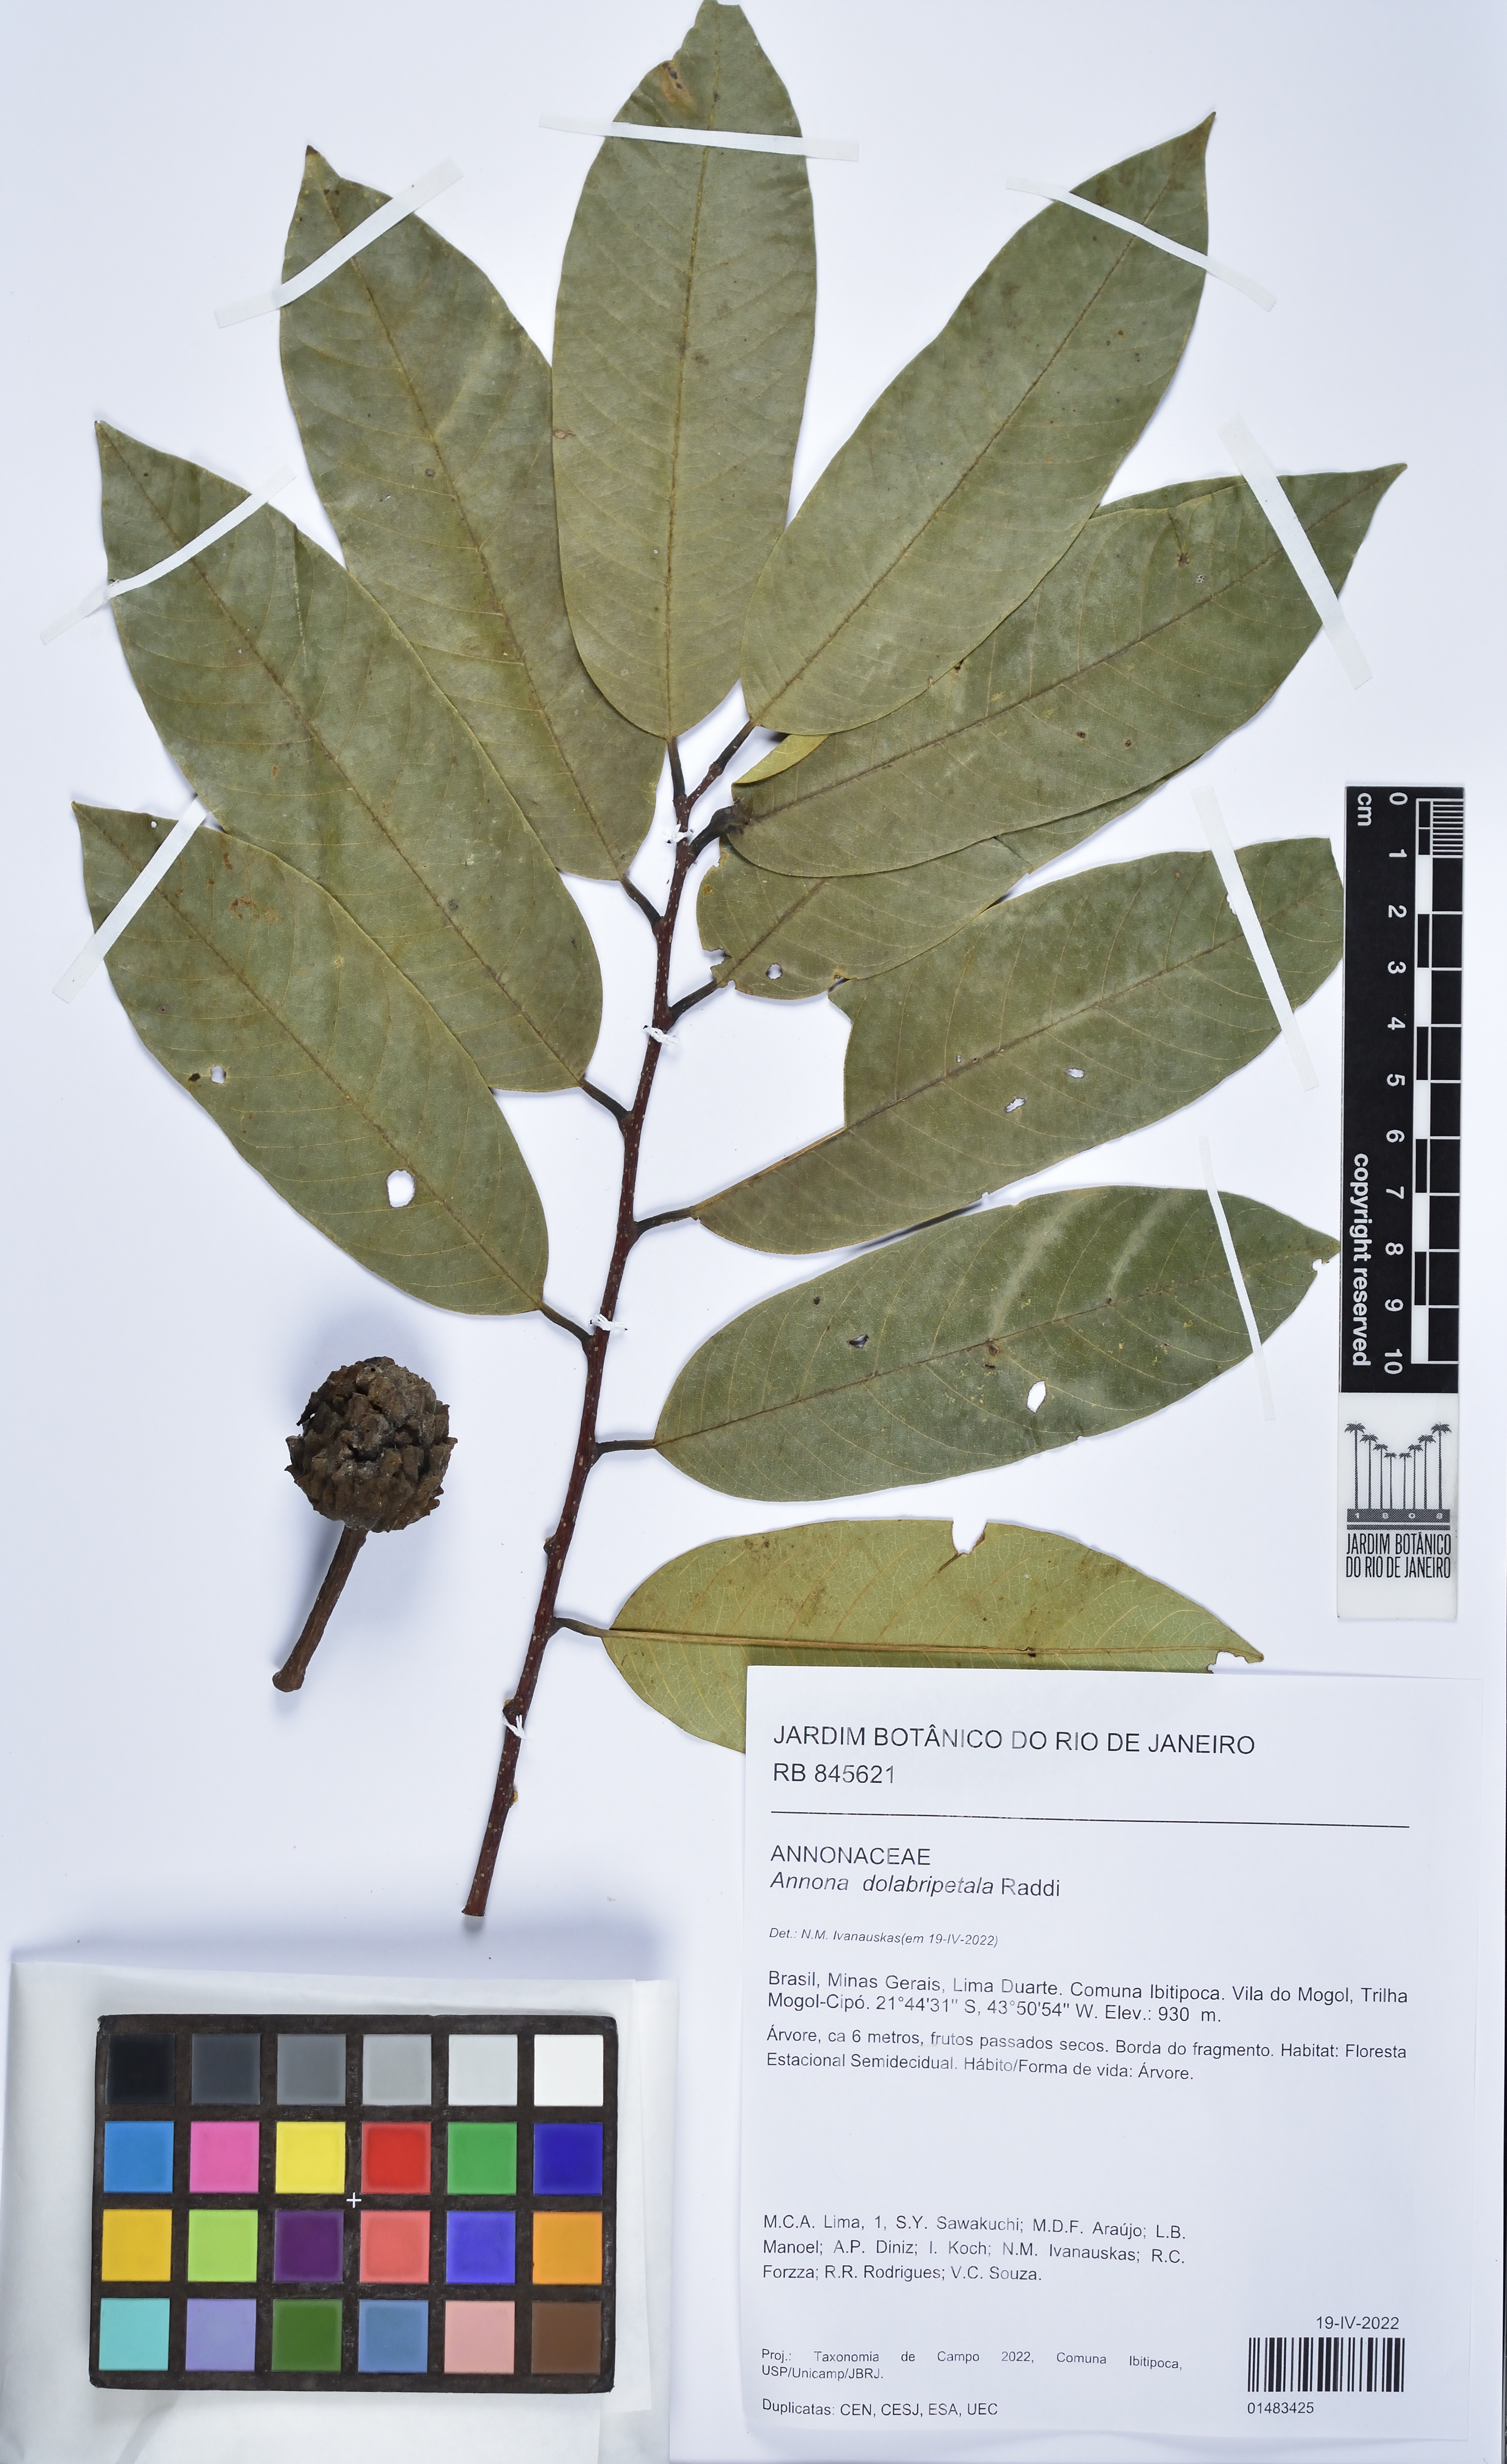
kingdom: Plantae
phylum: Tracheophyta
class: Magnoliopsida
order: Malpighiales
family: Phyllanthaceae
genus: Phyllanthus
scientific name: Phyllanthus niruri
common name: Niruri
